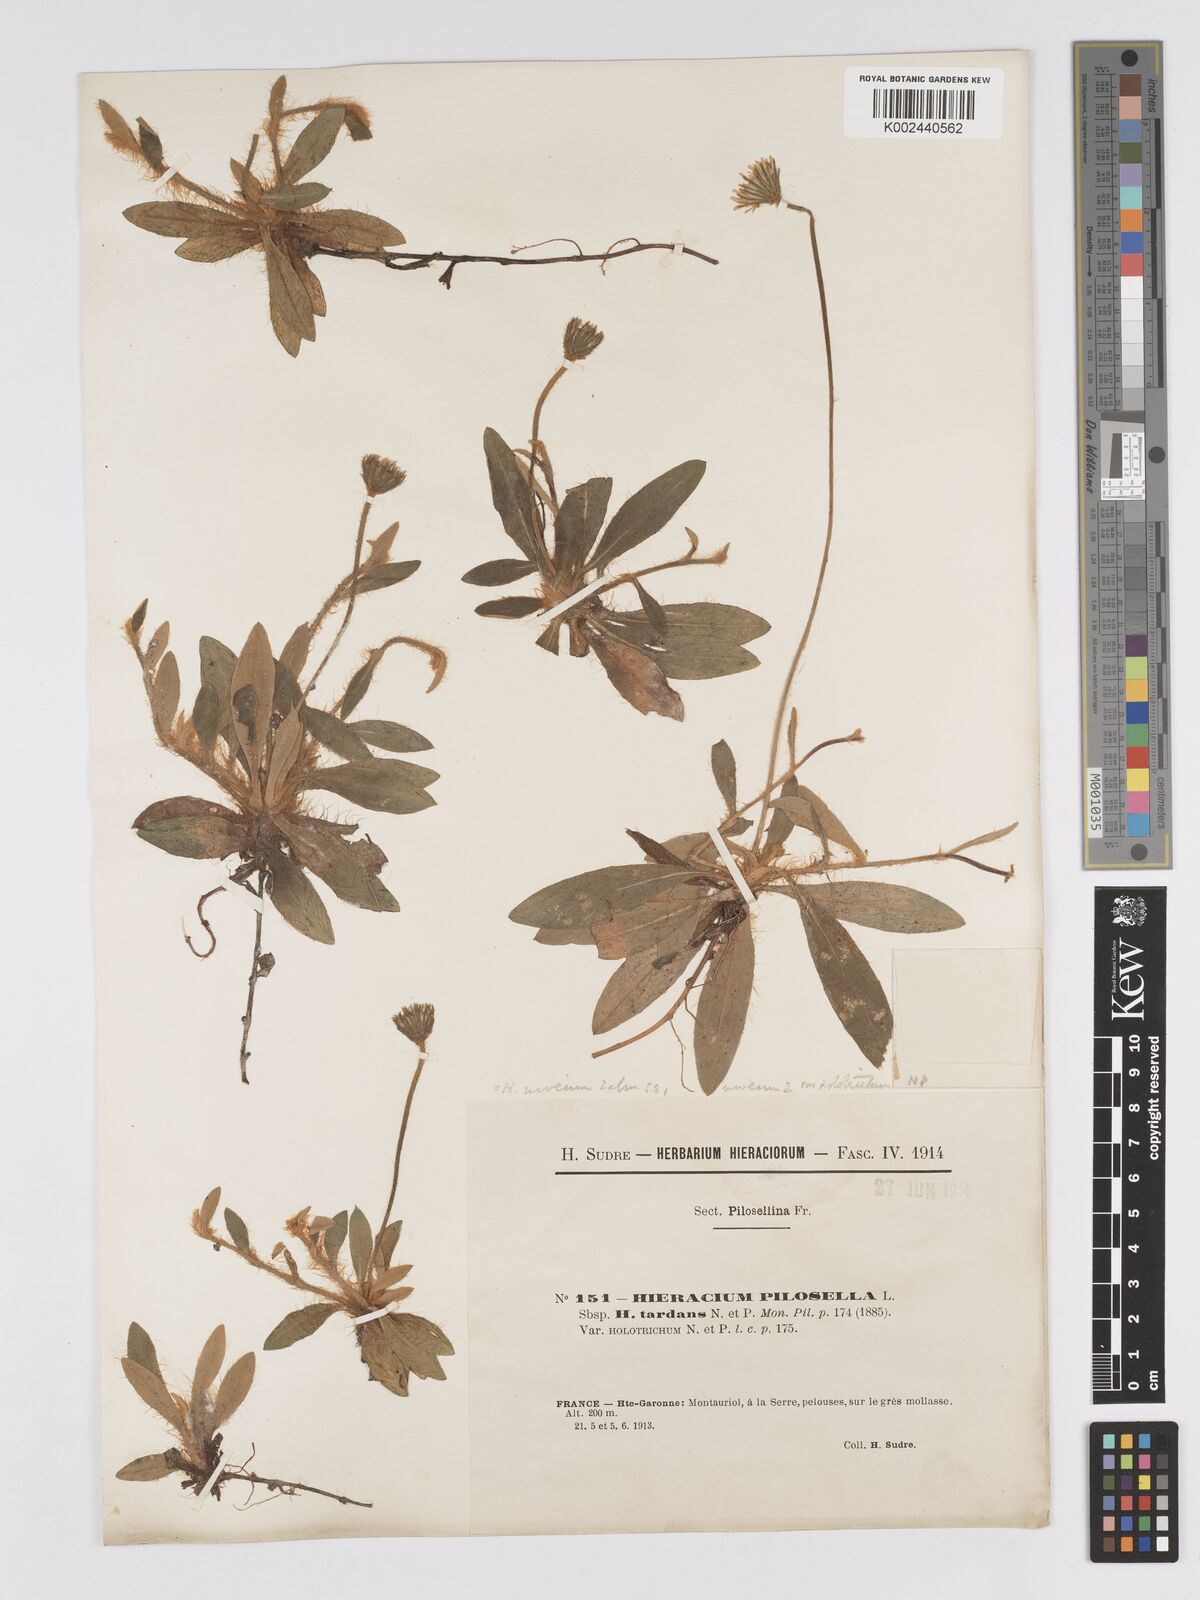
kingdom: Plantae
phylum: Tracheophyta
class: Magnoliopsida
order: Asterales
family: Asteraceae
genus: Pilosella
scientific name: Pilosella tardans
